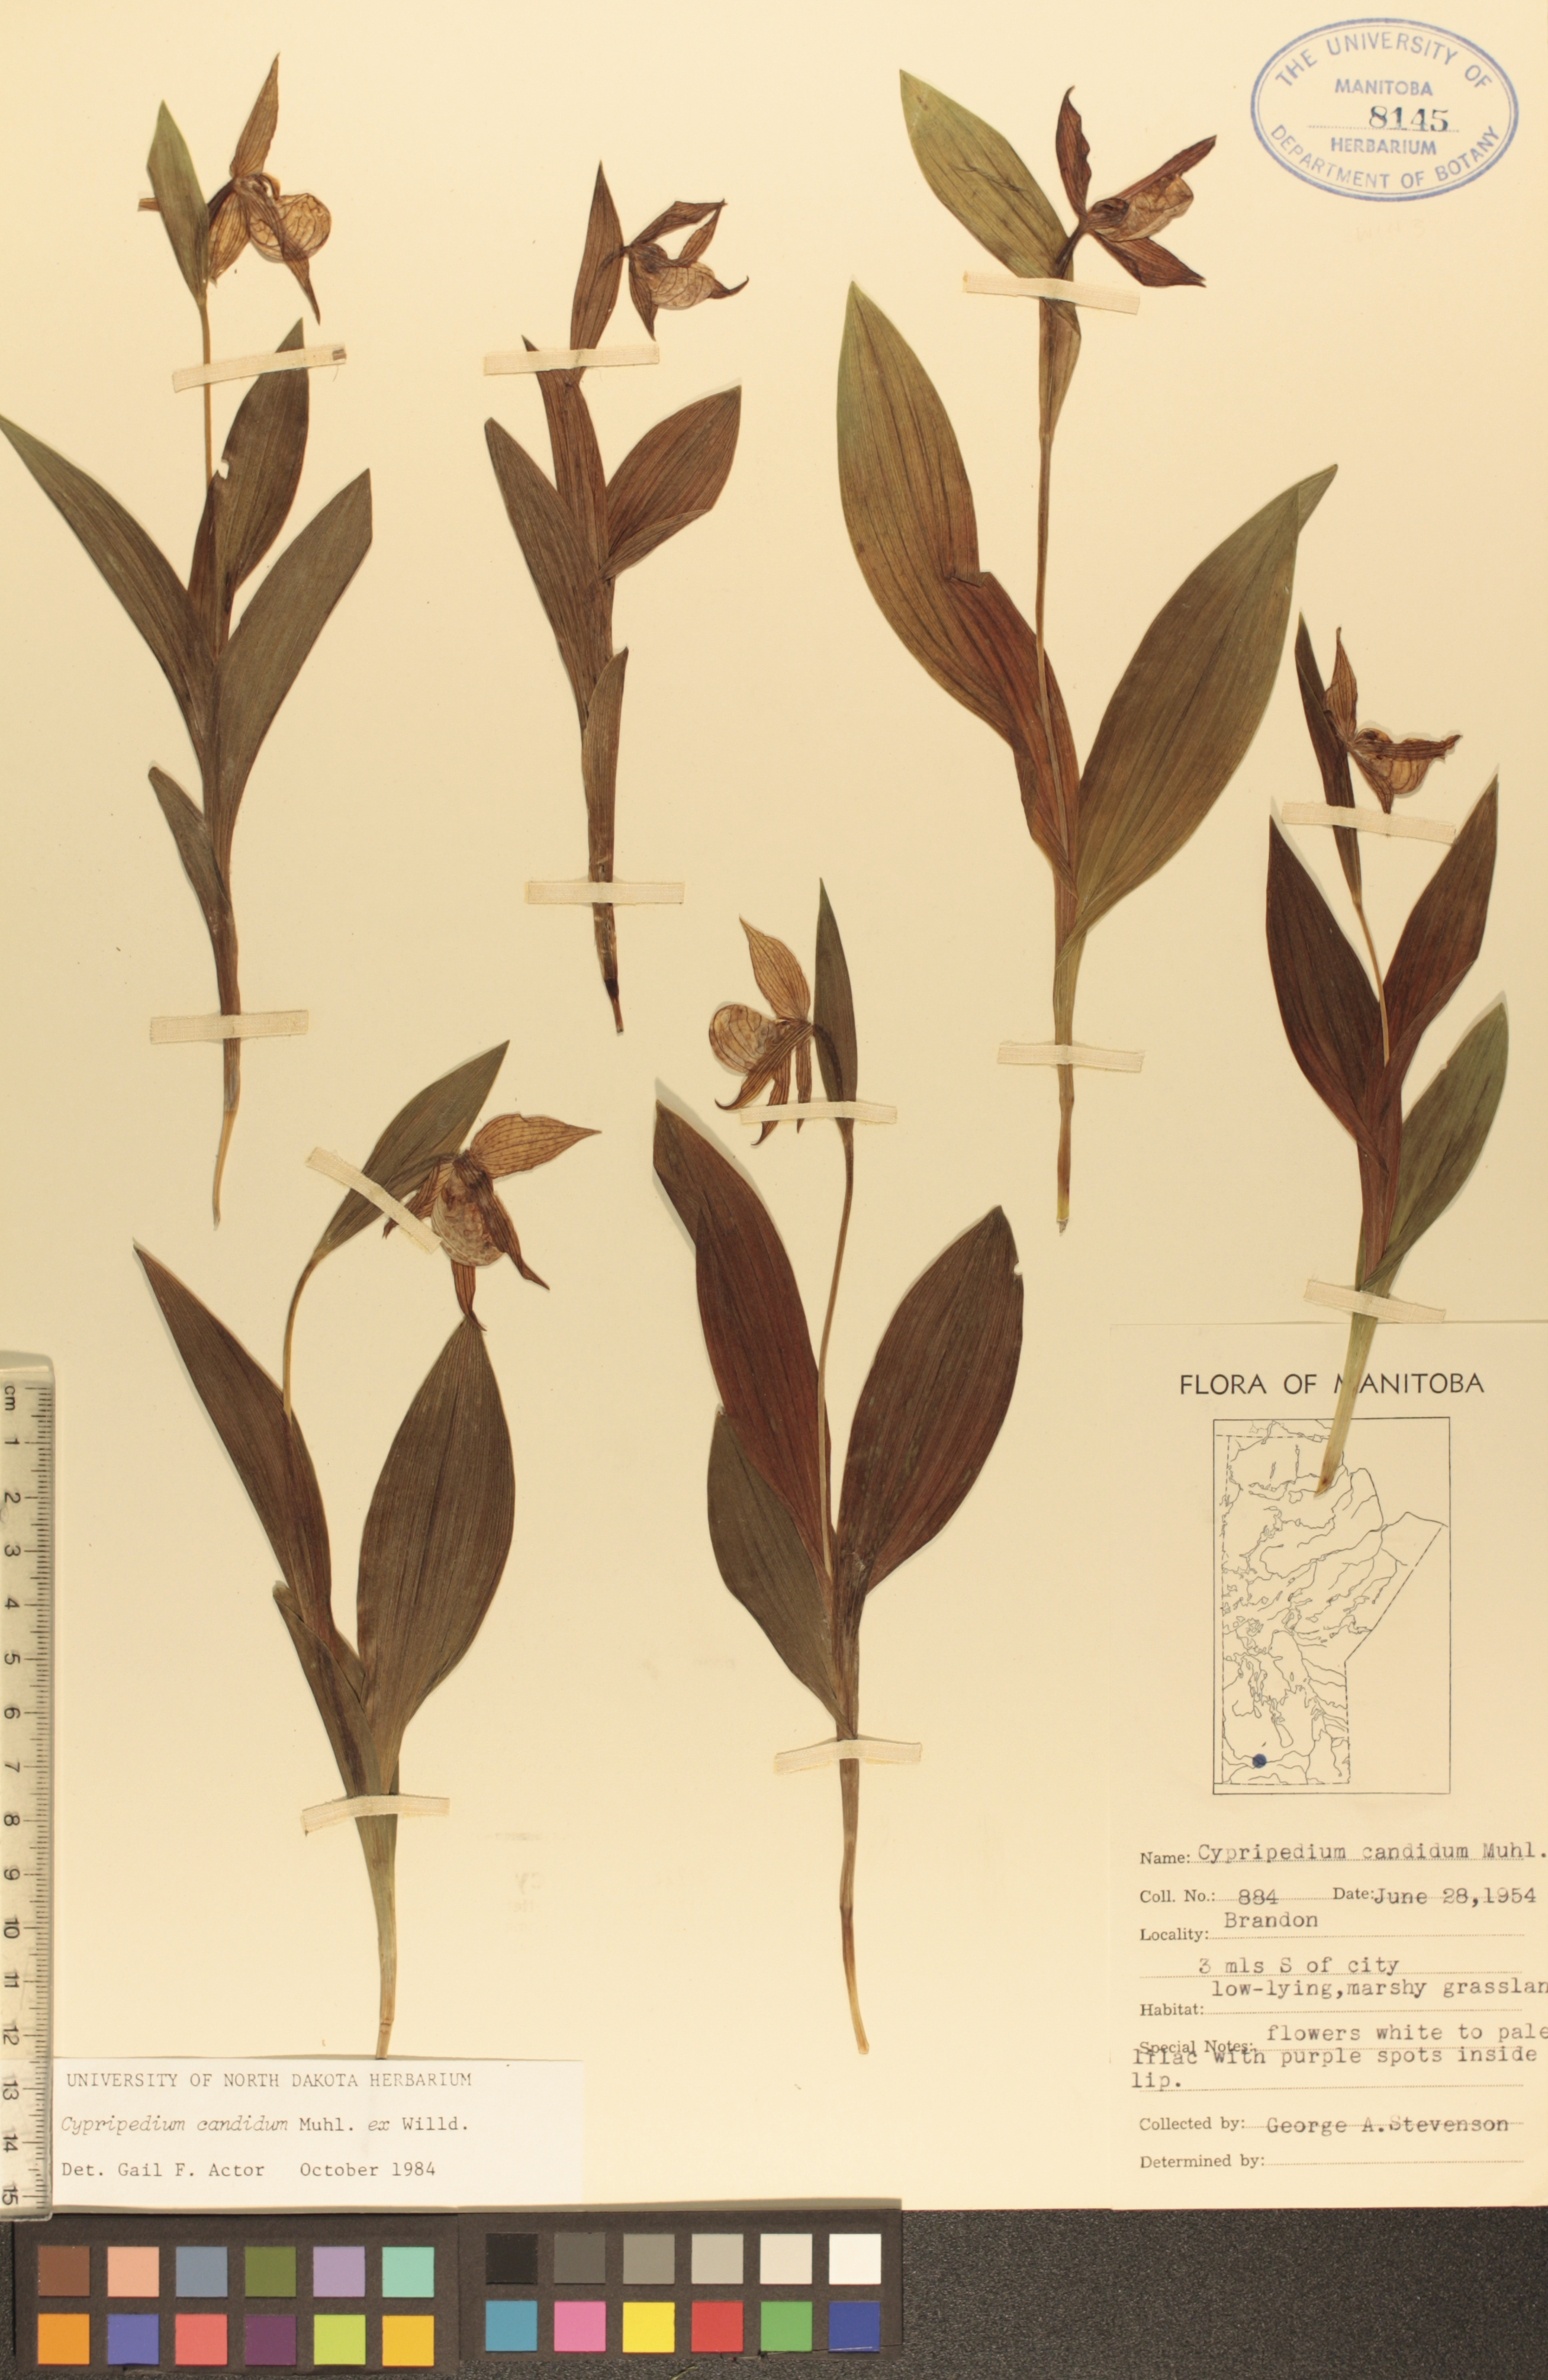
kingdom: Plantae
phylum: Tracheophyta
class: Liliopsida
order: Asparagales
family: Orchidaceae
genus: Cypripedium
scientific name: Cypripedium candidum
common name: White lady's-slipper
